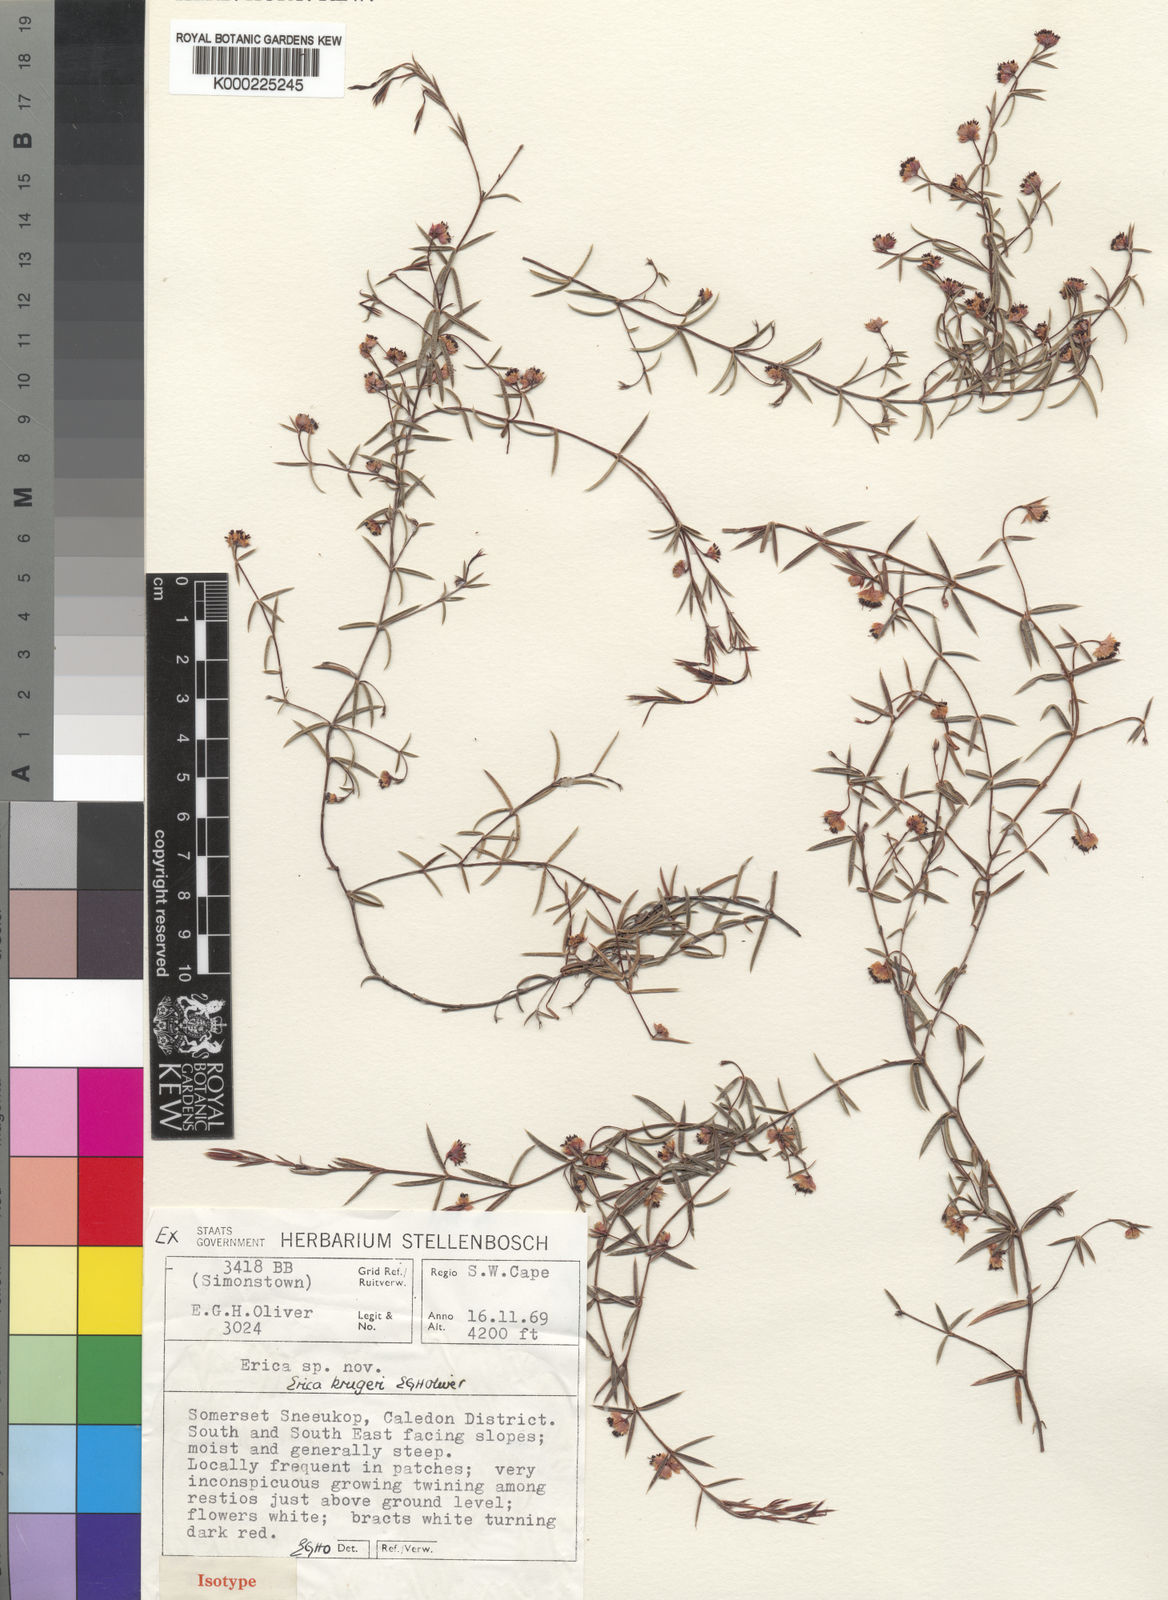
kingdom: Plantae
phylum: Tracheophyta
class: Magnoliopsida
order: Ericales
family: Ericaceae
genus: Erica
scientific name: Erica krugeri
